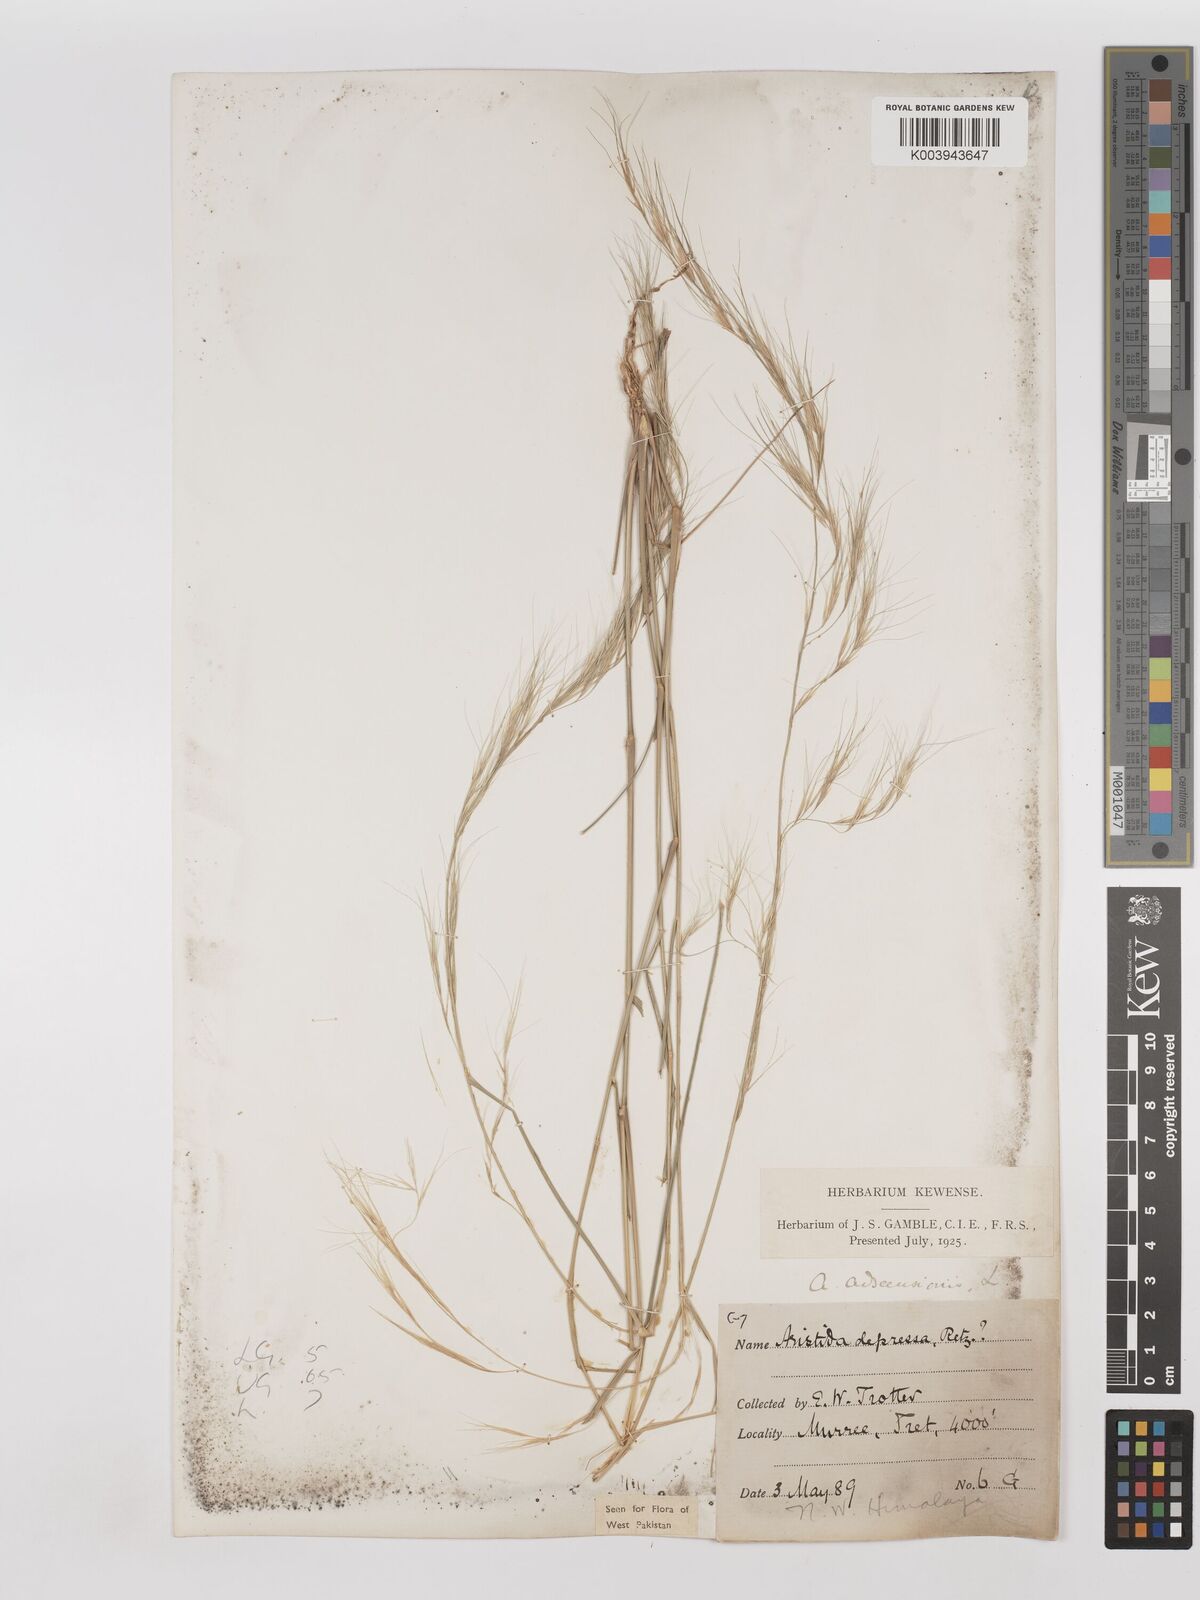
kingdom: Plantae
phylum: Tracheophyta
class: Liliopsida
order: Poales
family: Poaceae
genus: Aristida
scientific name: Aristida adscensionis
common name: Sixweeks threeawn
